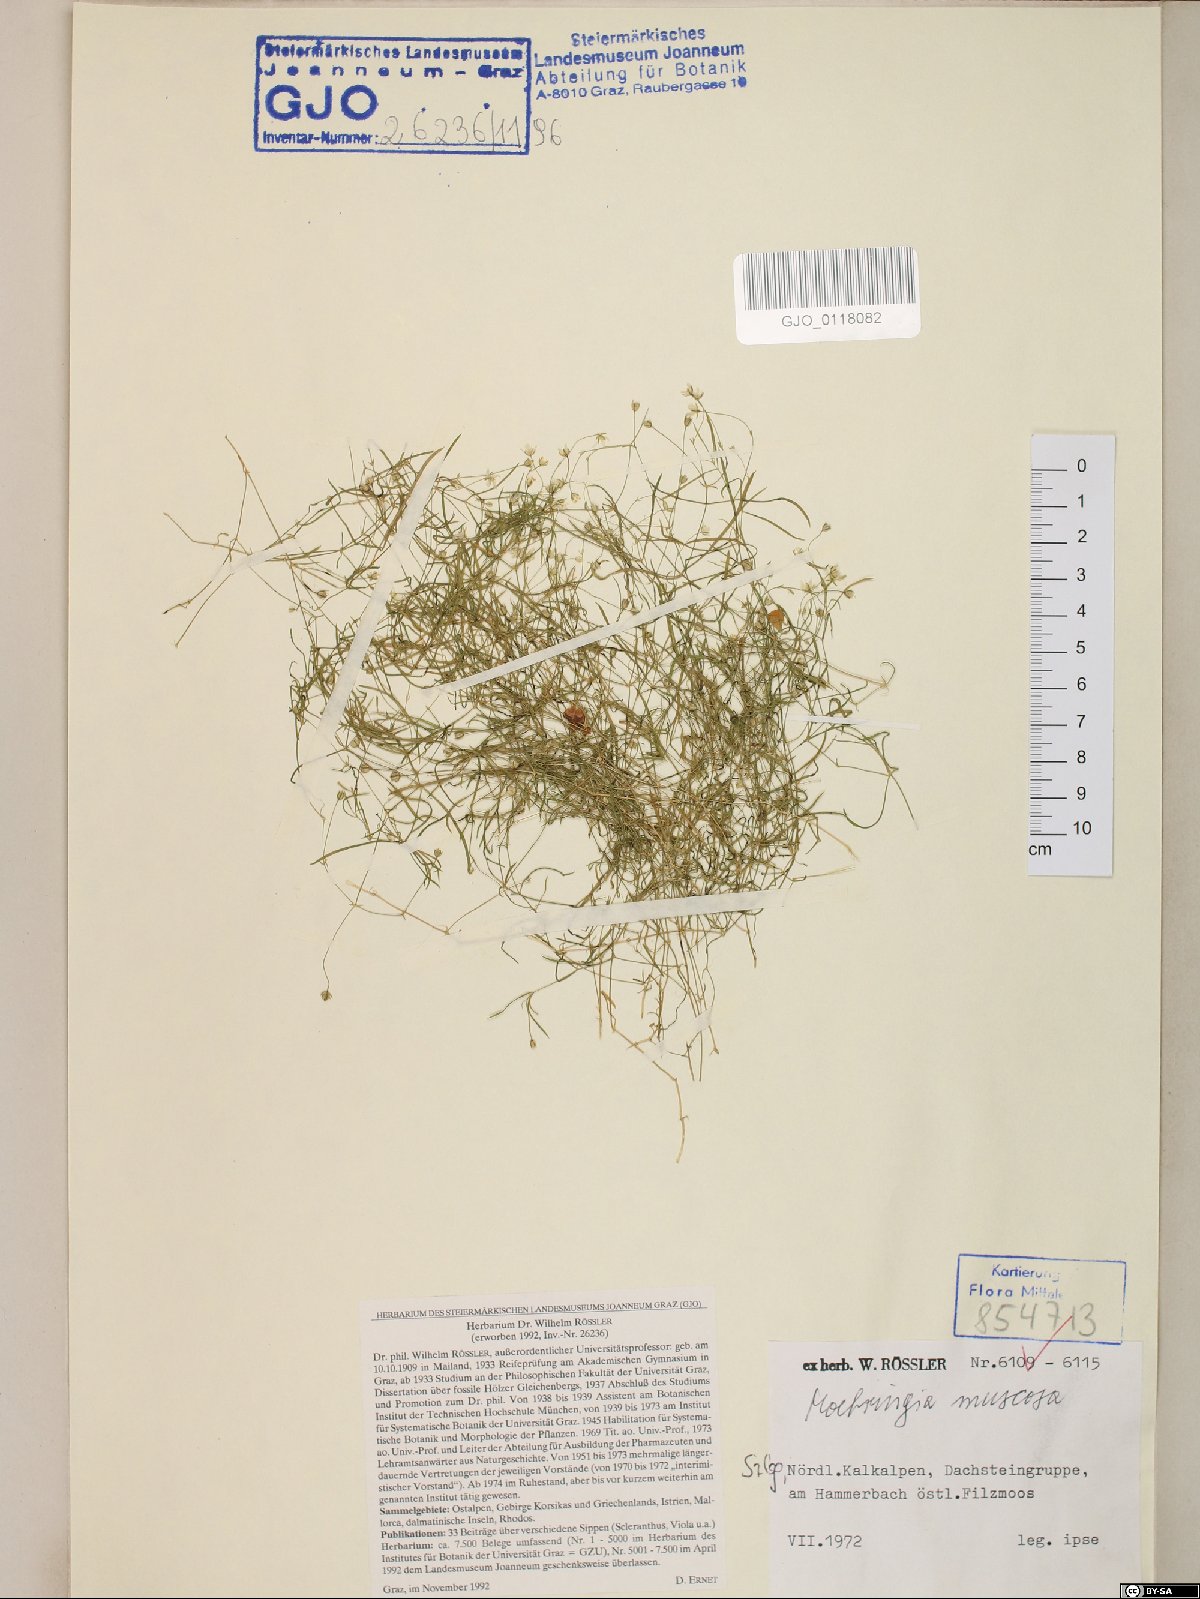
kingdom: Plantae
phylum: Tracheophyta
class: Magnoliopsida
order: Caryophyllales
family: Caryophyllaceae
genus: Moehringia
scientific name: Moehringia muscosa
